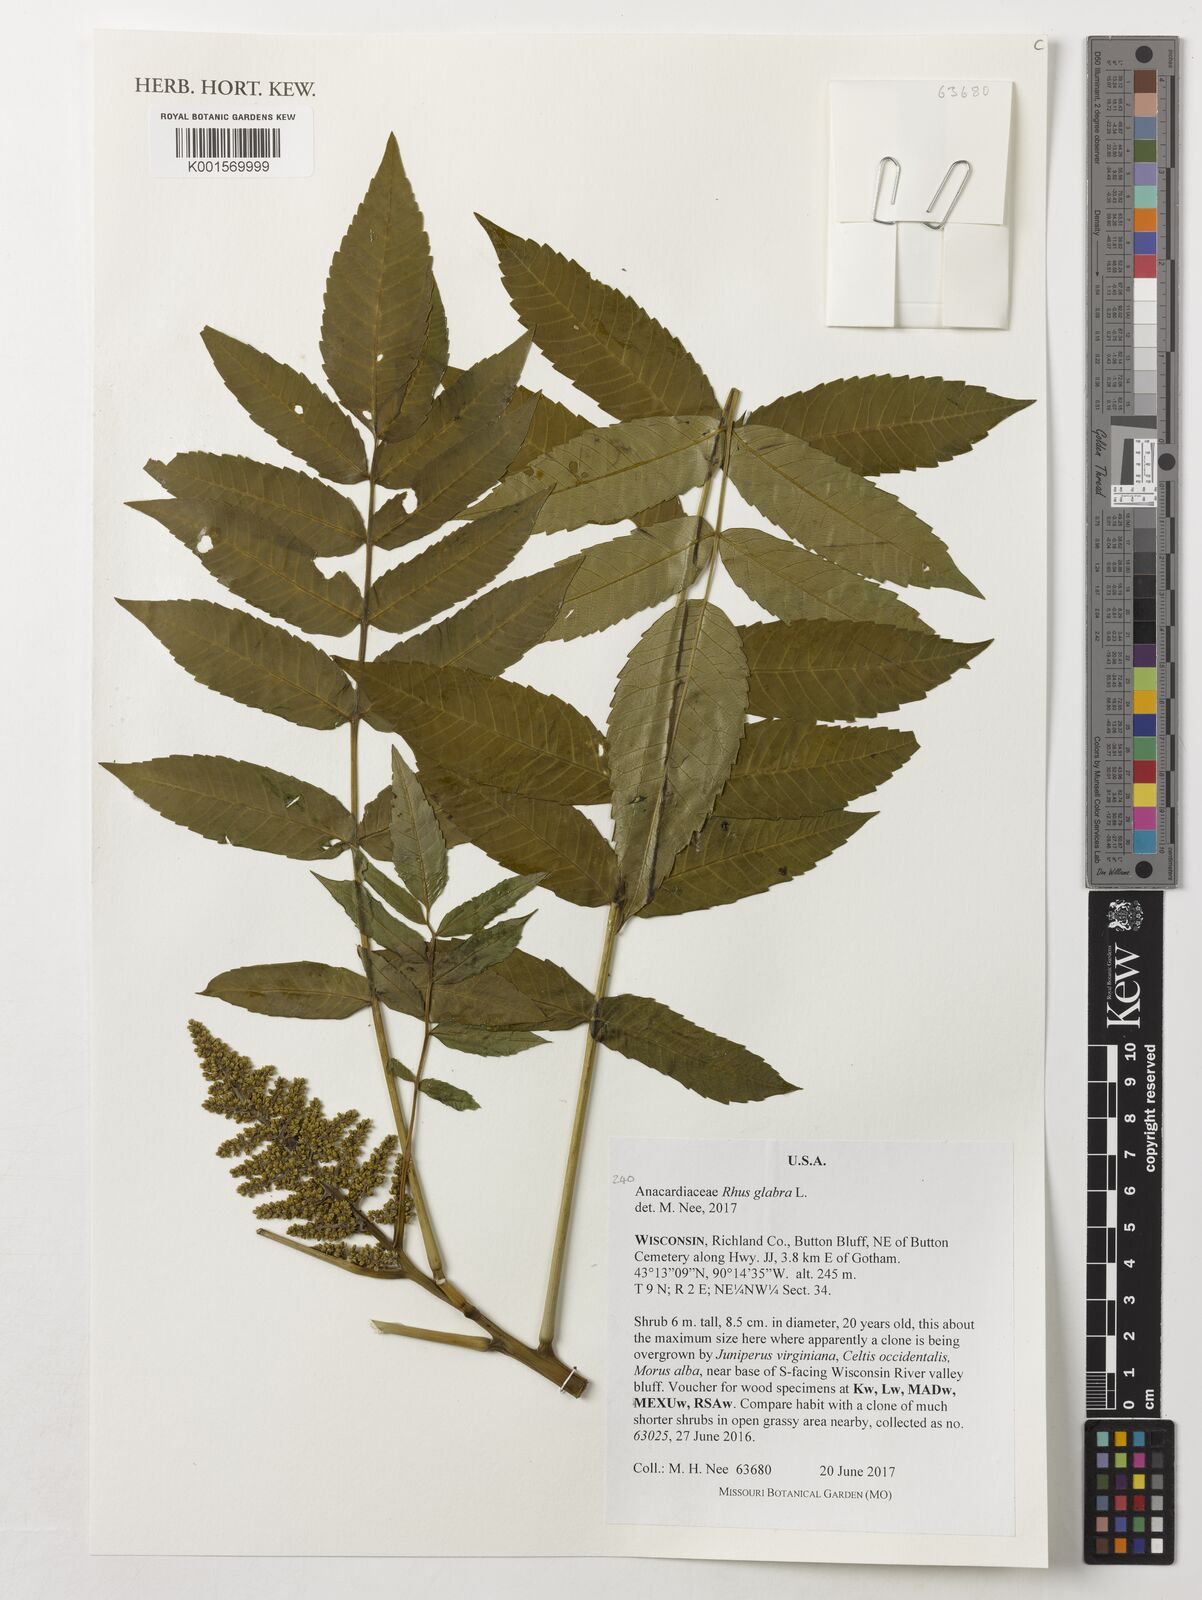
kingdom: Plantae
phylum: Tracheophyta
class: Magnoliopsida
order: Sapindales
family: Anacardiaceae
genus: Rhus
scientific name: Rhus glabra
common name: Scarlet sumac
